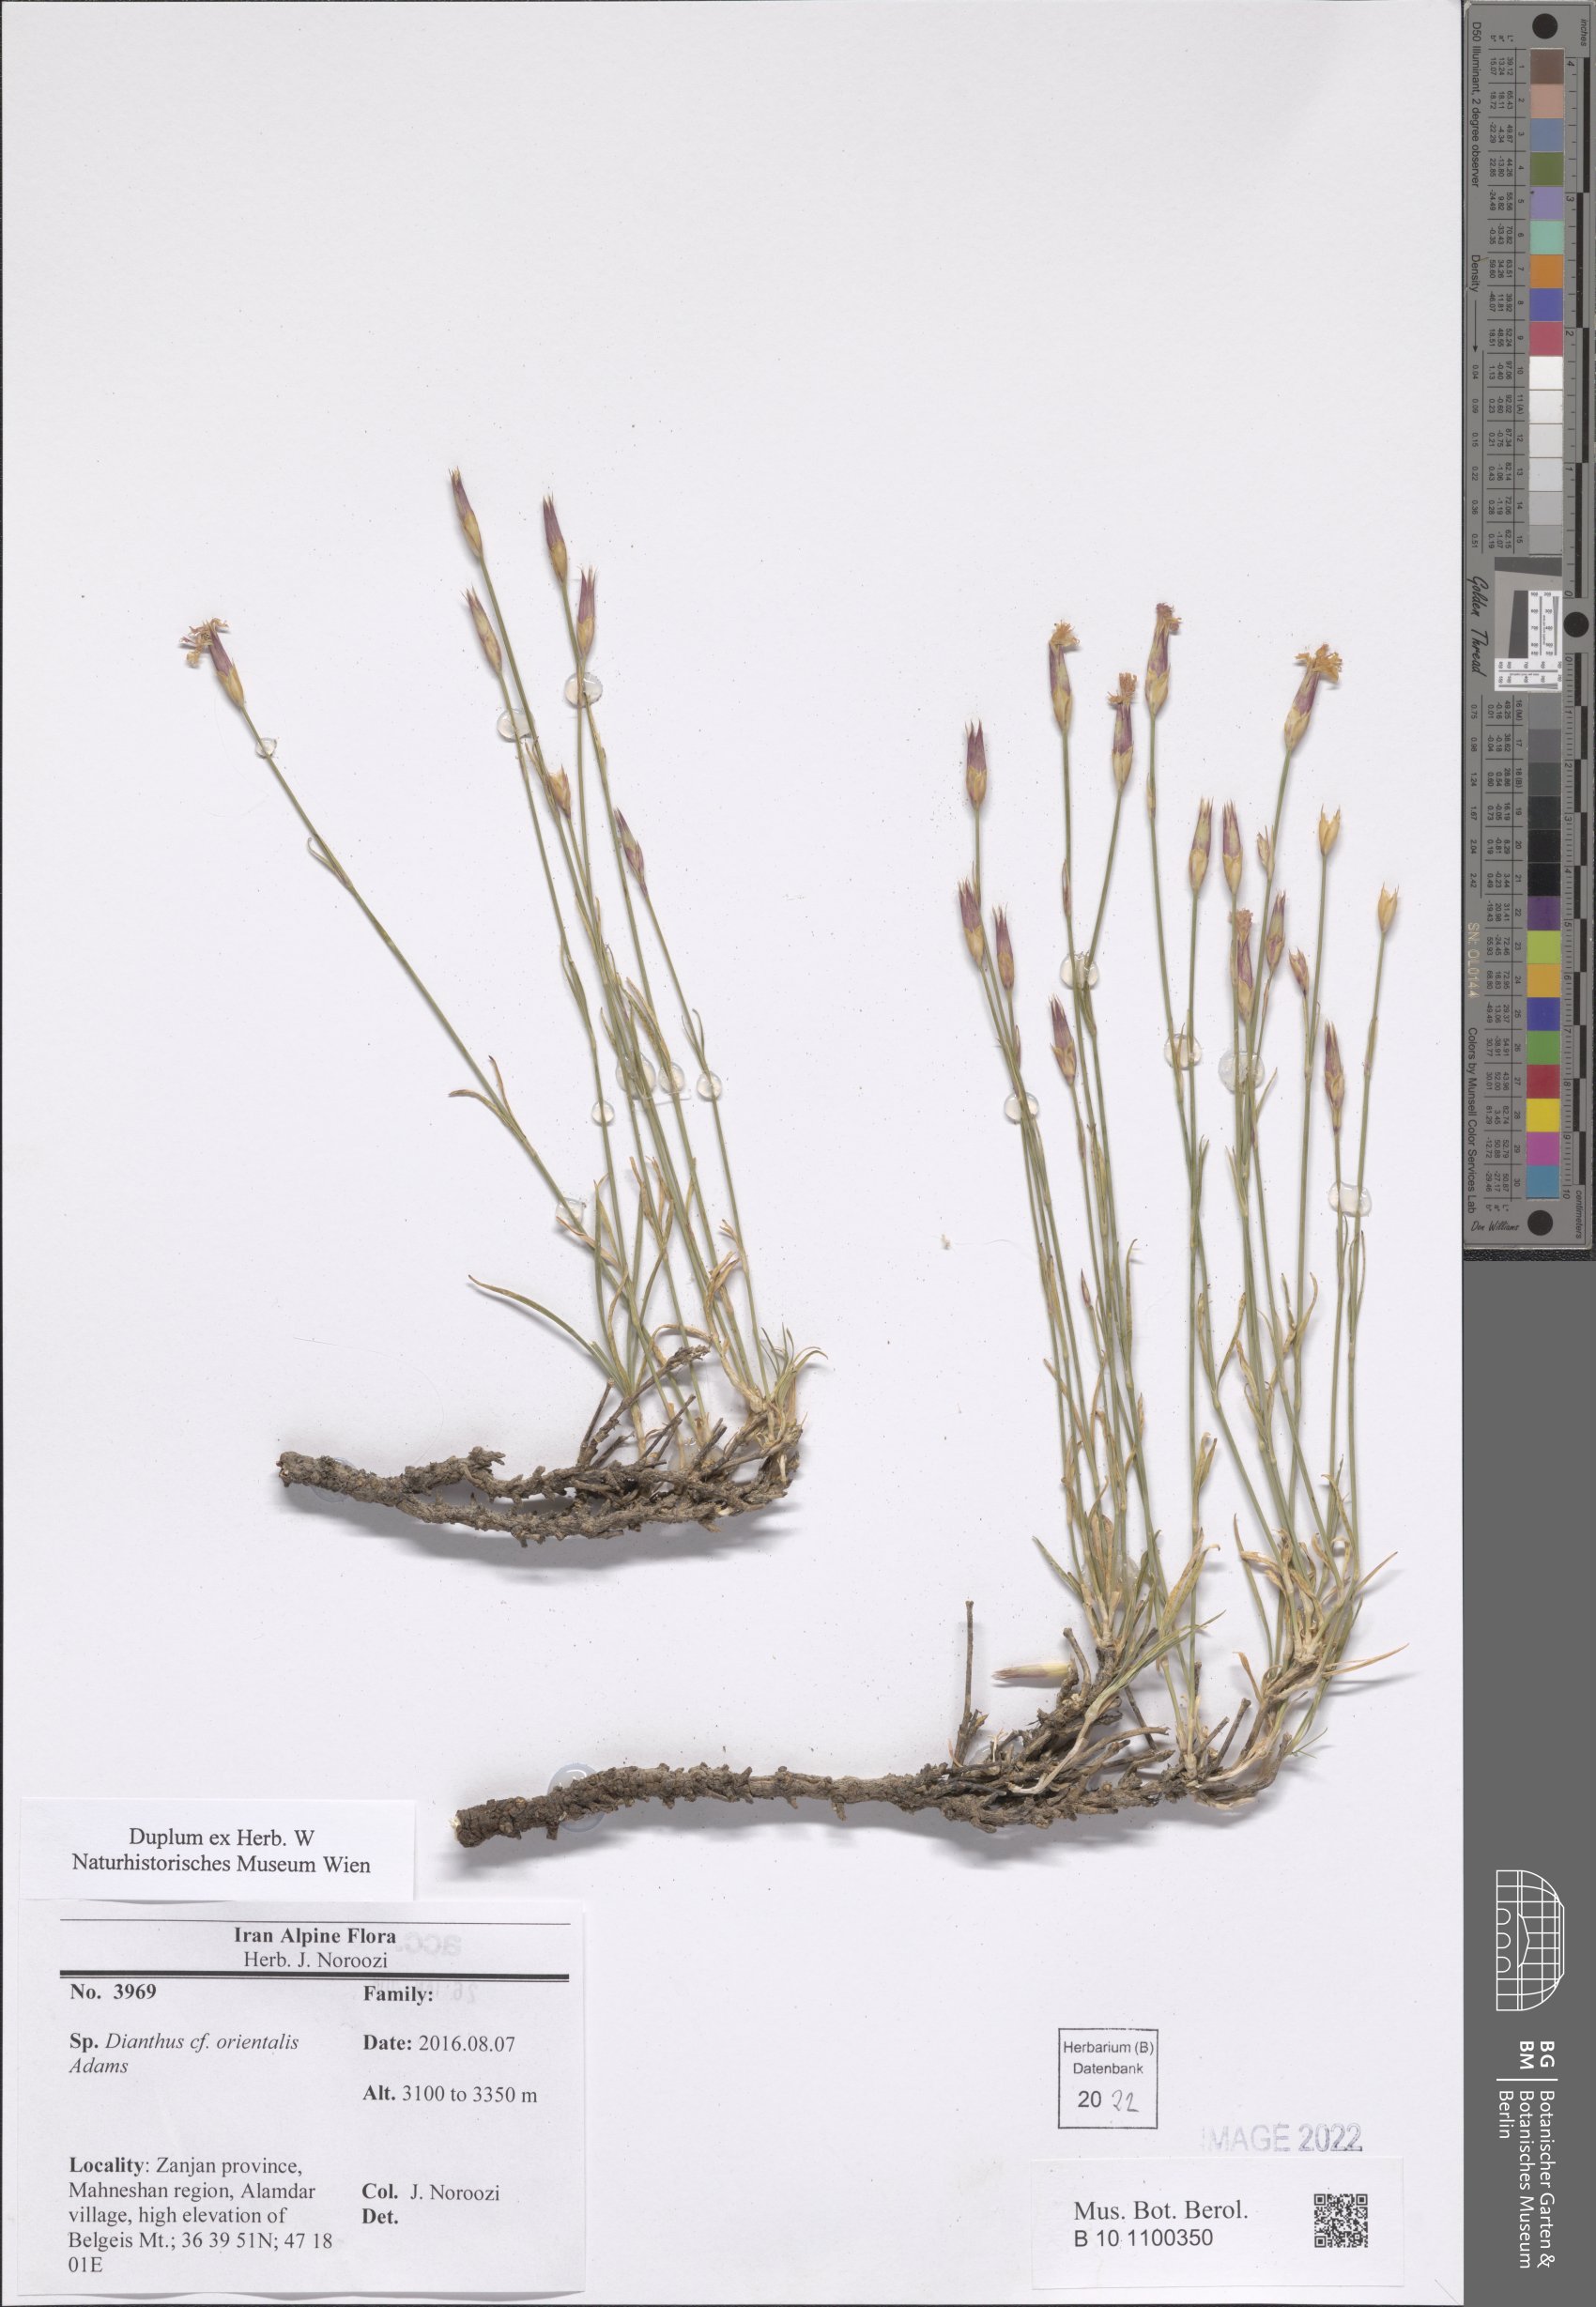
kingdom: Plantae
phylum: Tracheophyta
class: Magnoliopsida
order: Caryophyllales
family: Caryophyllaceae
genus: Dianthus
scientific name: Dianthus orientalis
